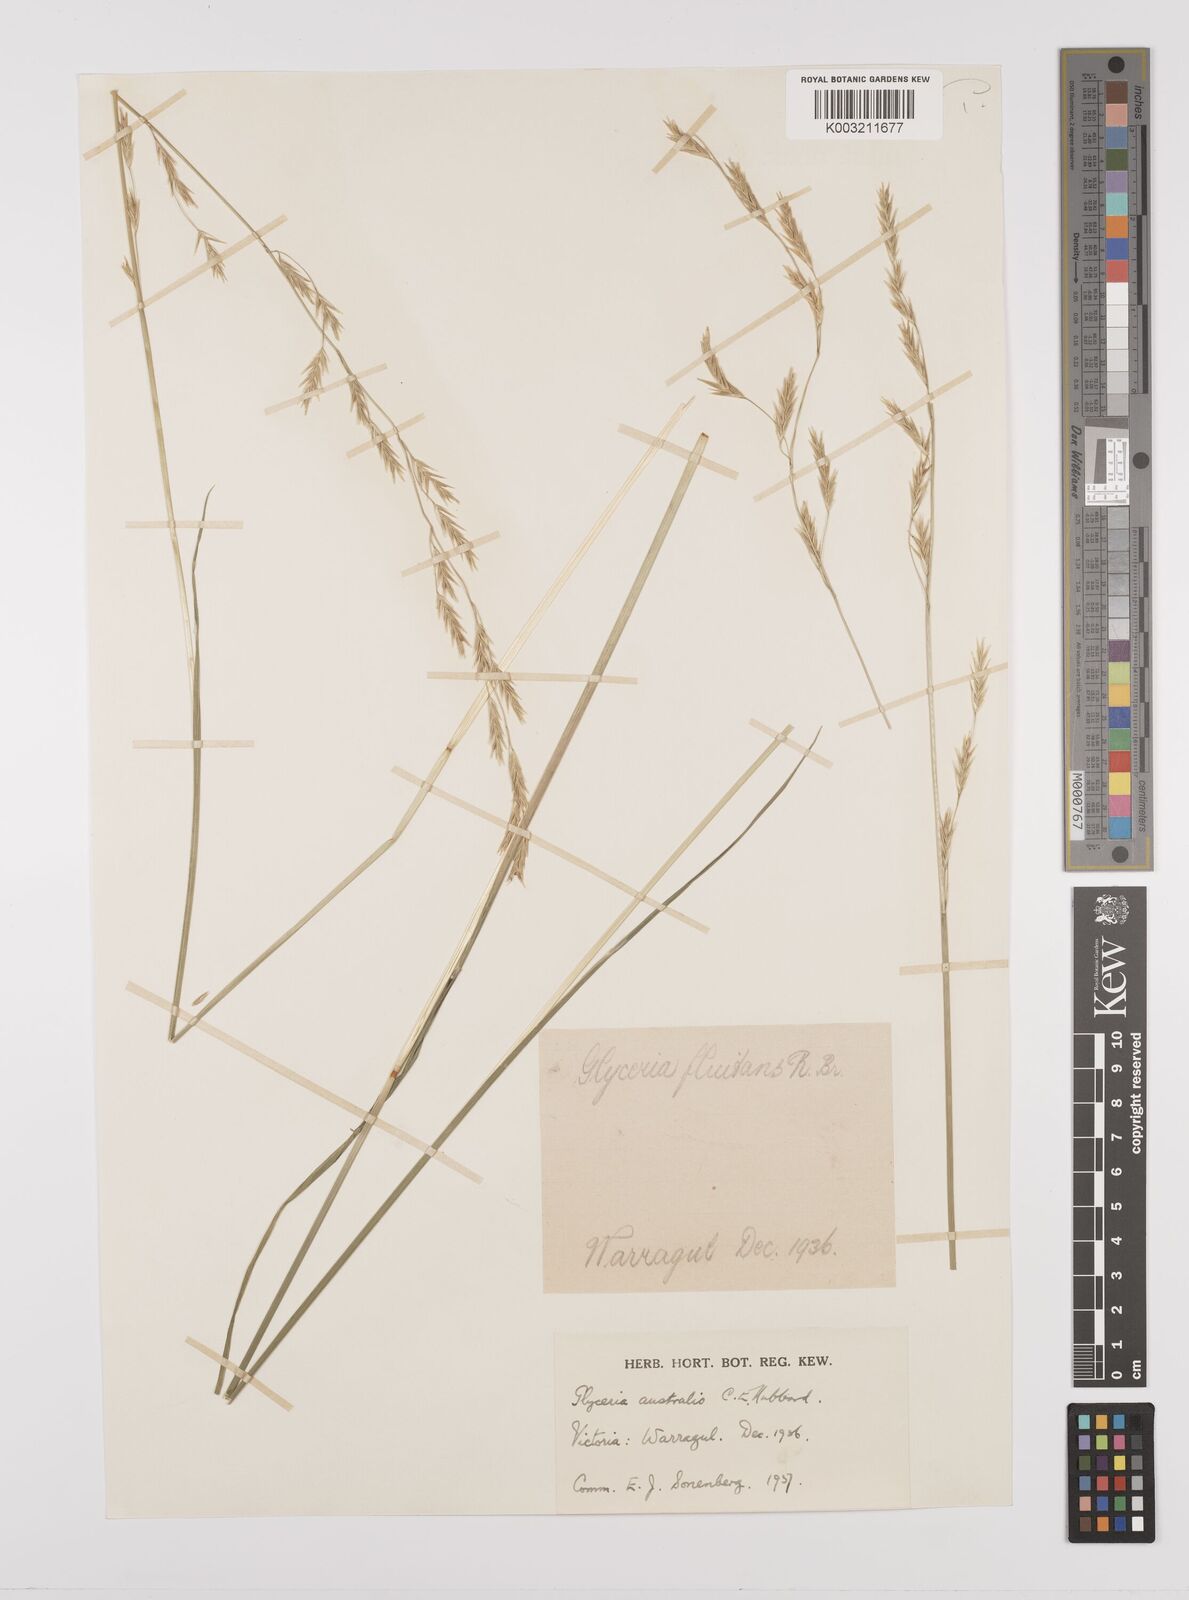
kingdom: Plantae
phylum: Tracheophyta
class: Liliopsida
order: Poales
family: Poaceae
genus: Glyceria
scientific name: Glyceria australis
